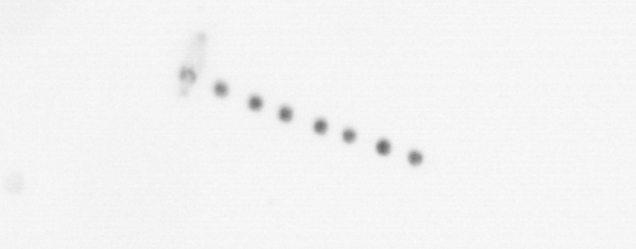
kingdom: Chromista
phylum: Ochrophyta
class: Bacillariophyceae
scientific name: Bacillariophyceae
